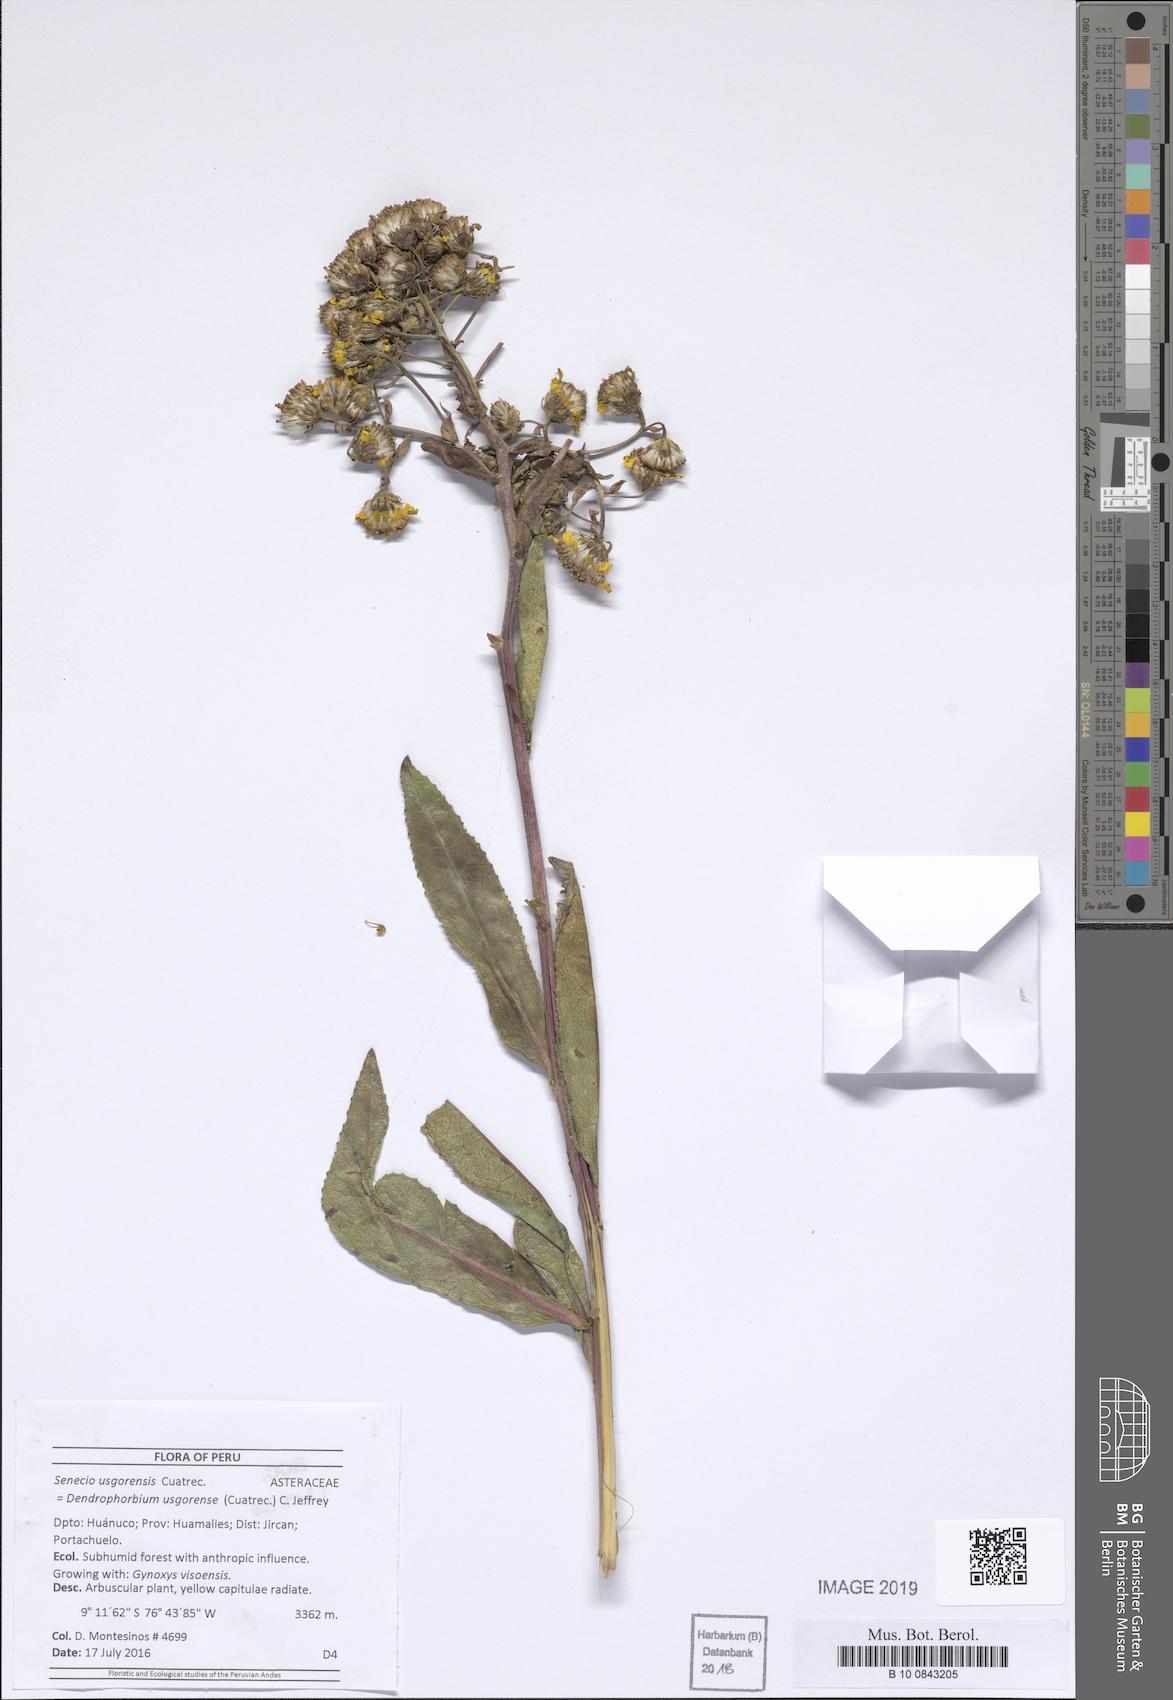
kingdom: Plantae
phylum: Tracheophyta
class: Magnoliopsida
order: Asterales
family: Asteraceae
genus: Dendrophorbium
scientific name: Dendrophorbium elatum
